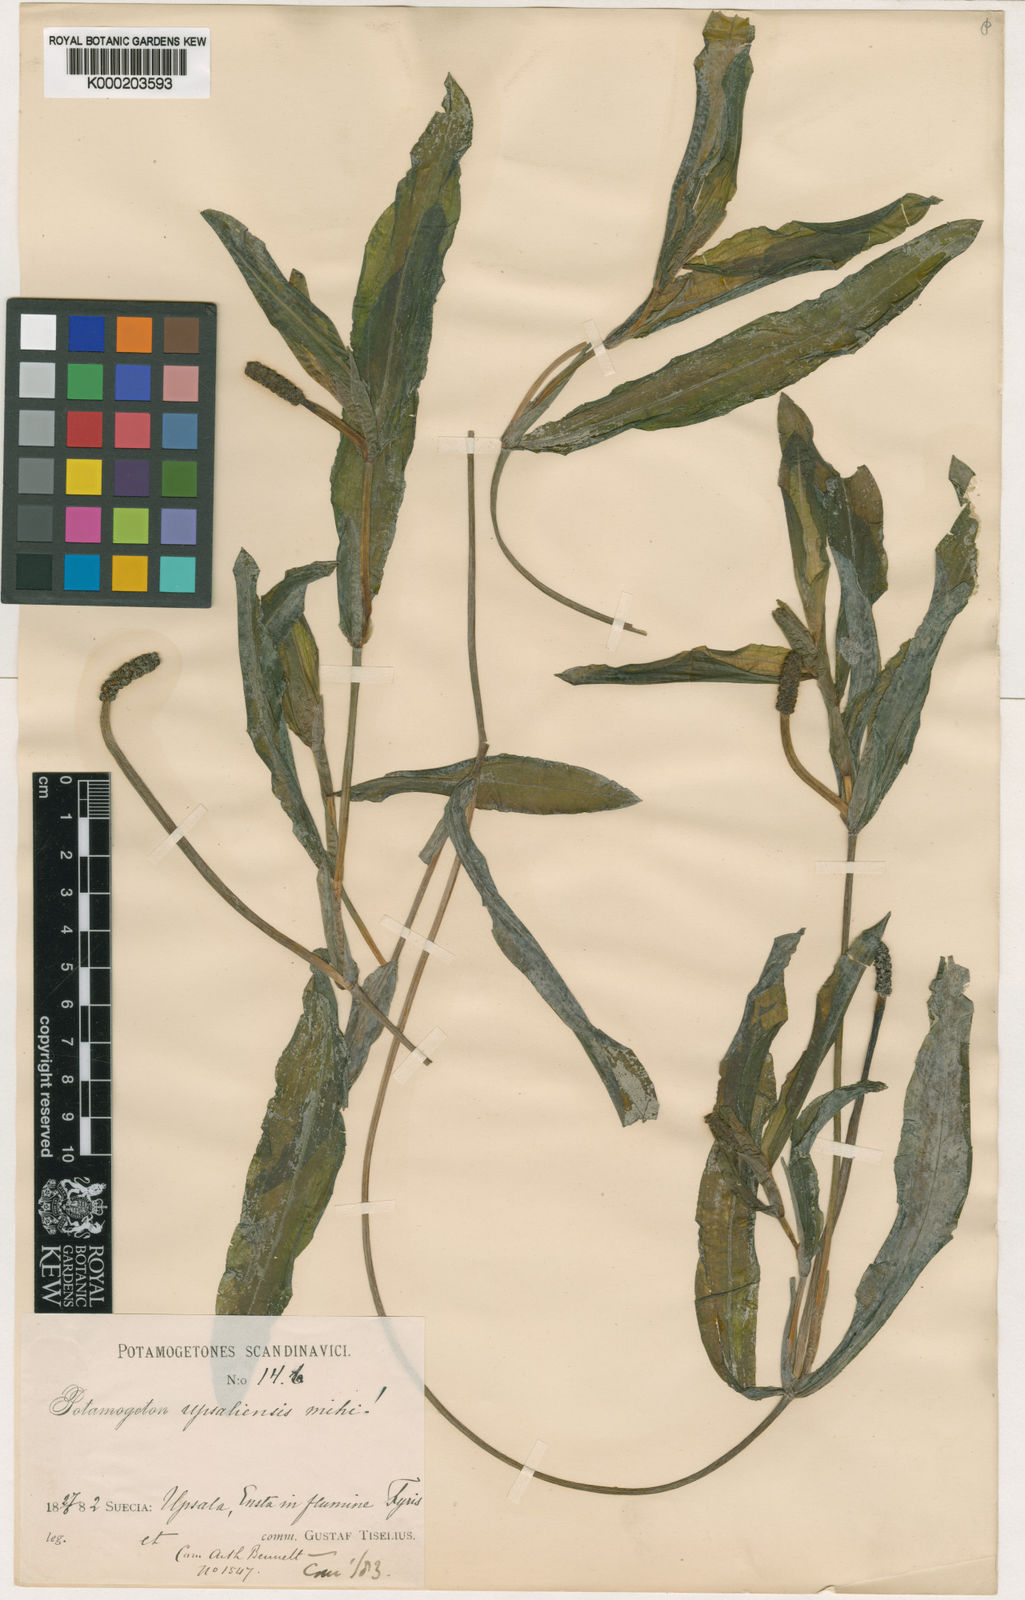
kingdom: Plantae
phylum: Tracheophyta
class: Liliopsida
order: Alismatales
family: Potamogetonaceae
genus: Potamogeton
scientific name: Potamogeton salicifolius
